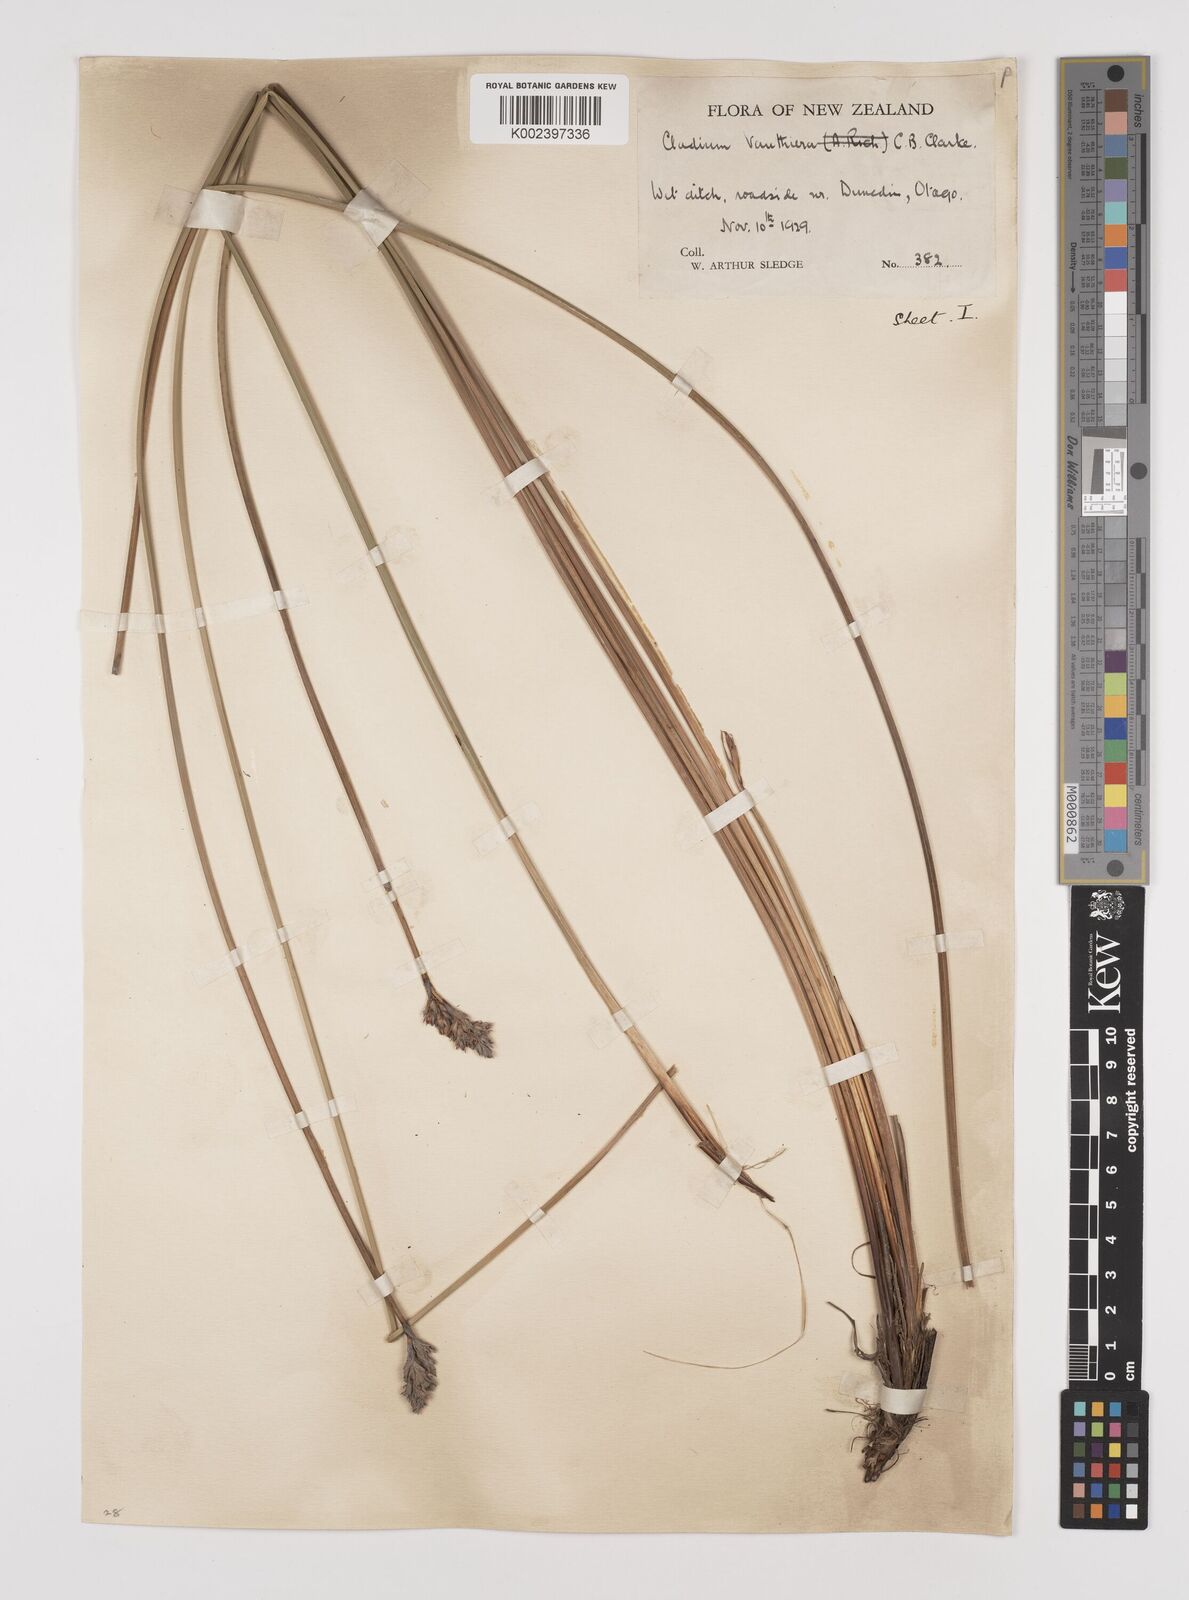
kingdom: Plantae
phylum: Tracheophyta
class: Liliopsida
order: Poales
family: Cyperaceae
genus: Lepidosperma
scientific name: Lepidosperma australe
